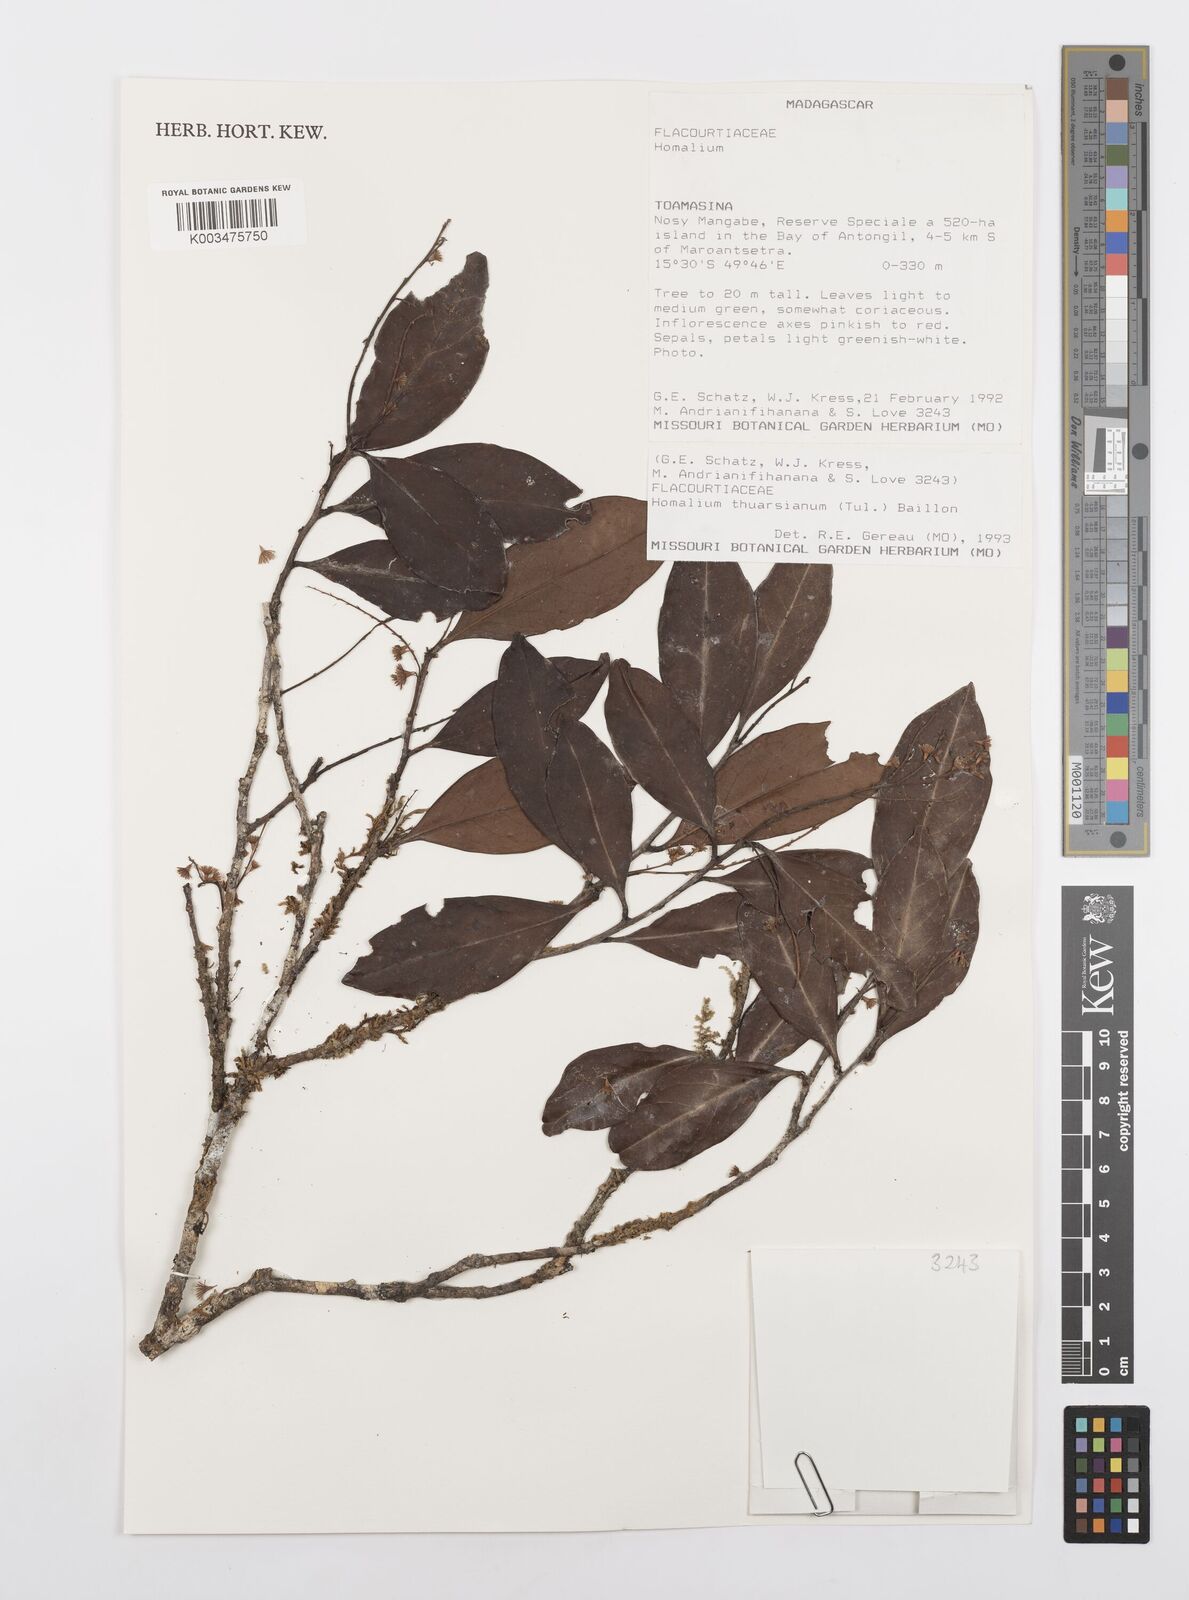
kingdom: Plantae
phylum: Tracheophyta
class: Magnoliopsida
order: Malpighiales
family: Salicaceae
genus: Homalium
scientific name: Homalium thuarsianum
